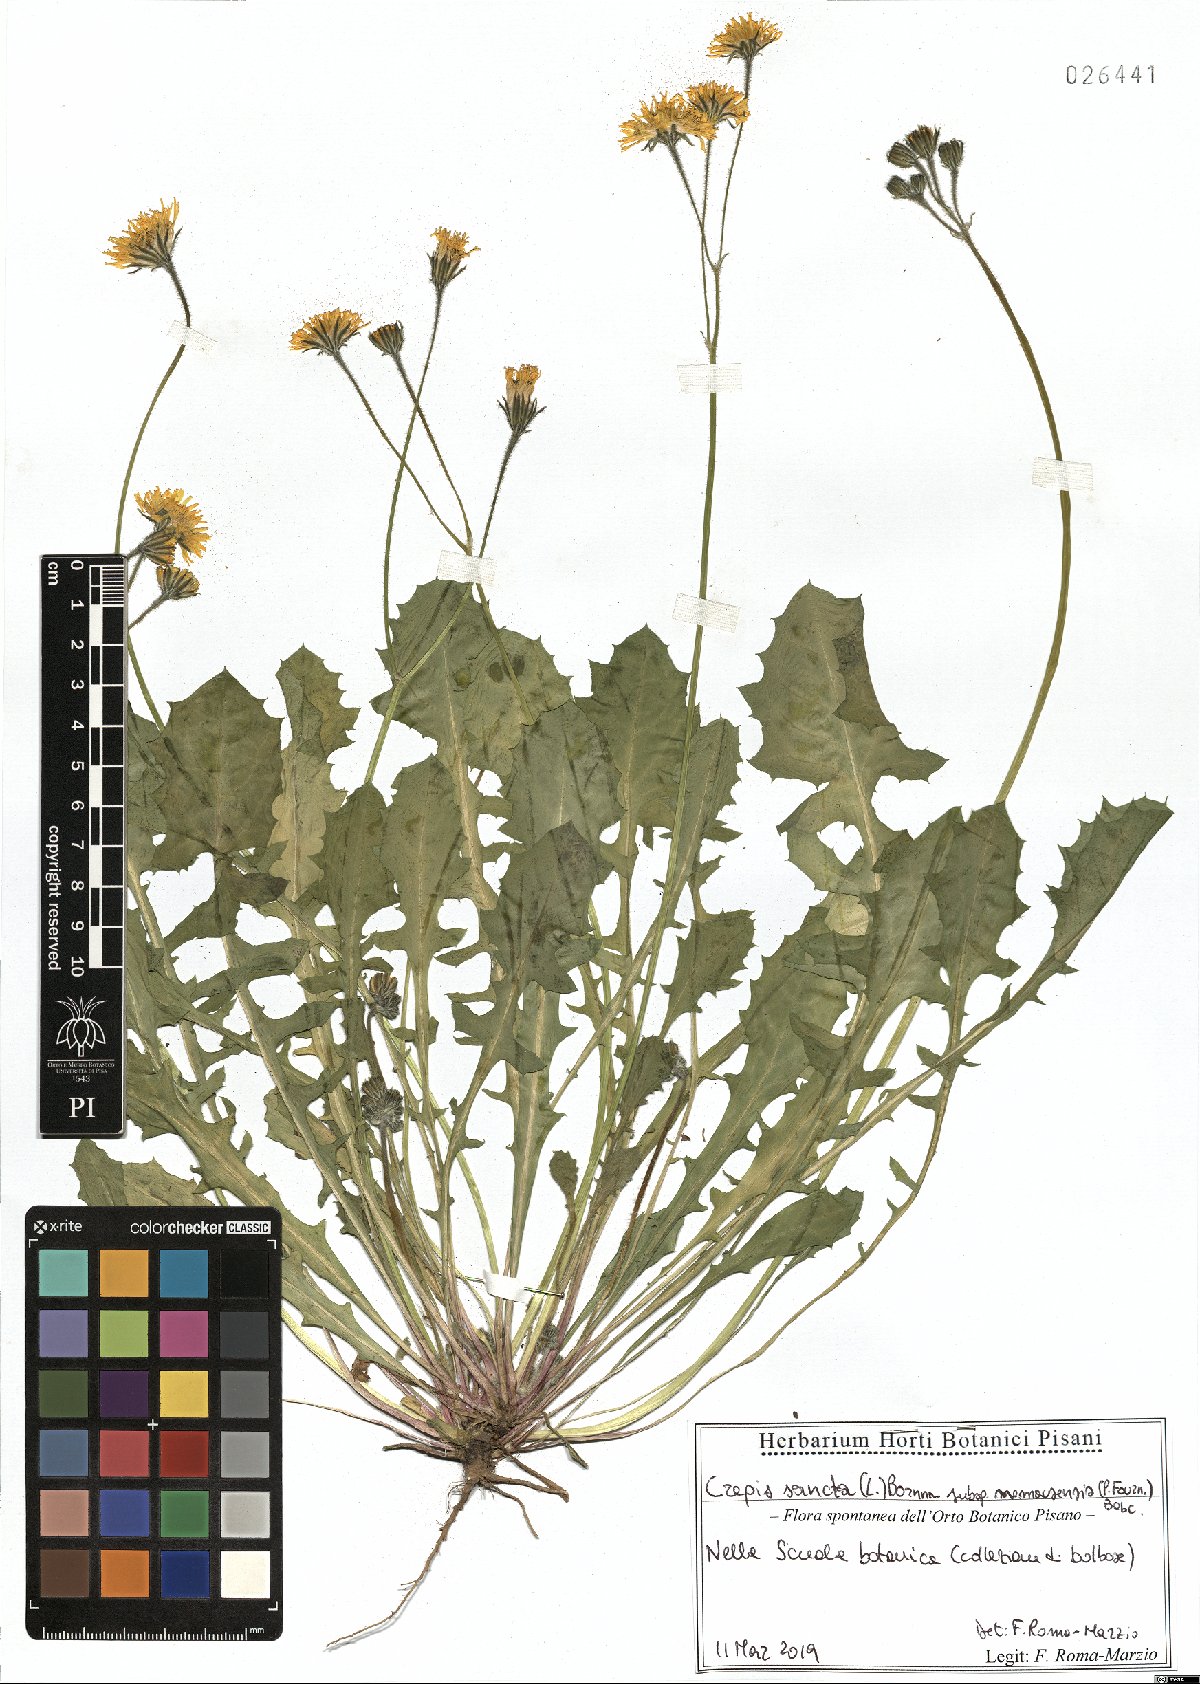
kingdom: Plantae
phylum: Tracheophyta
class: Magnoliopsida
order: Asterales
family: Asteraceae
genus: Crepis
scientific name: Crepis sancta
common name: Hawk's-beard
